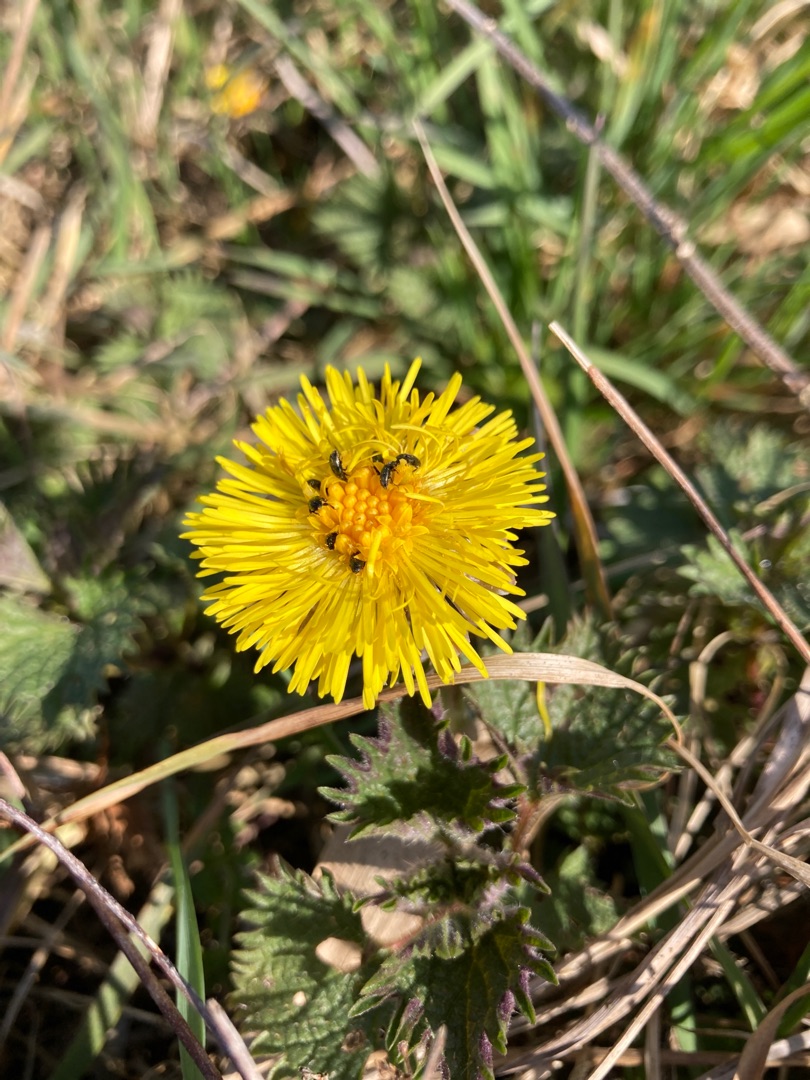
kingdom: Plantae
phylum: Tracheophyta
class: Magnoliopsida
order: Asterales
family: Asteraceae
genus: Tussilago
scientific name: Tussilago farfara
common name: Følfod
